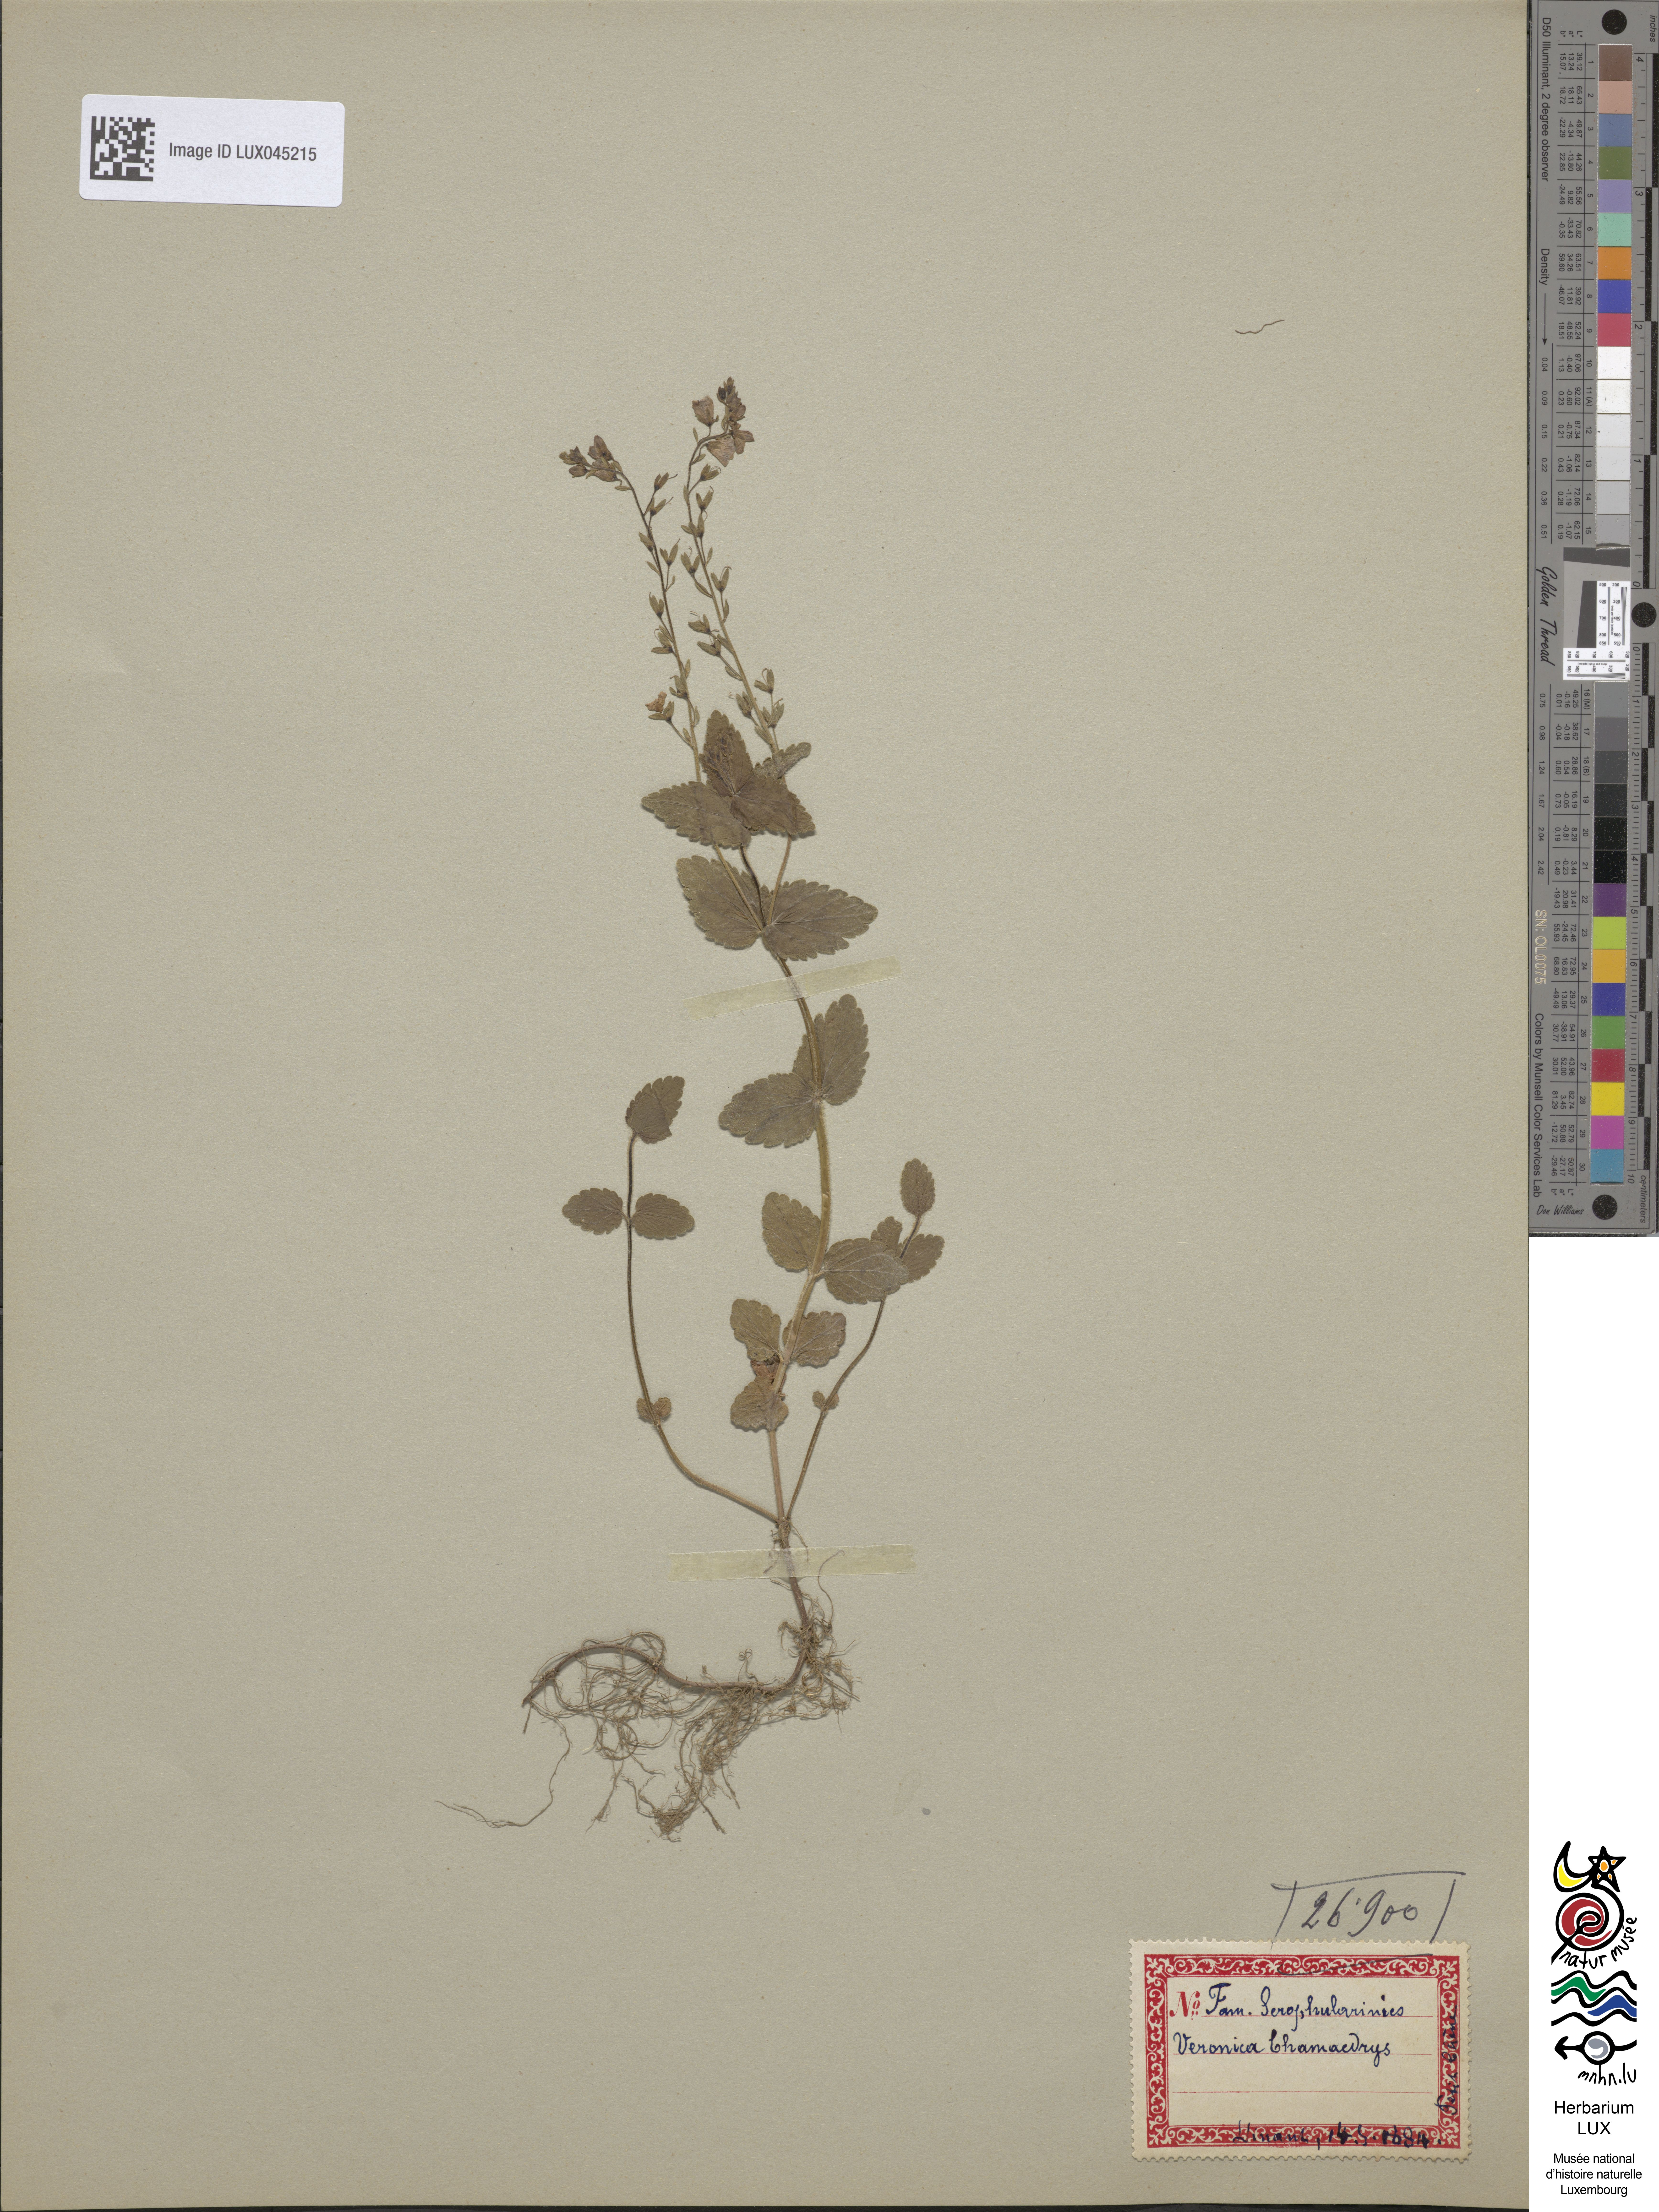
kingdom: Plantae
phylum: Tracheophyta
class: Magnoliopsida
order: Lamiales
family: Plantaginaceae
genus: Veronica
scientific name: Veronica chamaedrys
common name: Germander speedwell
